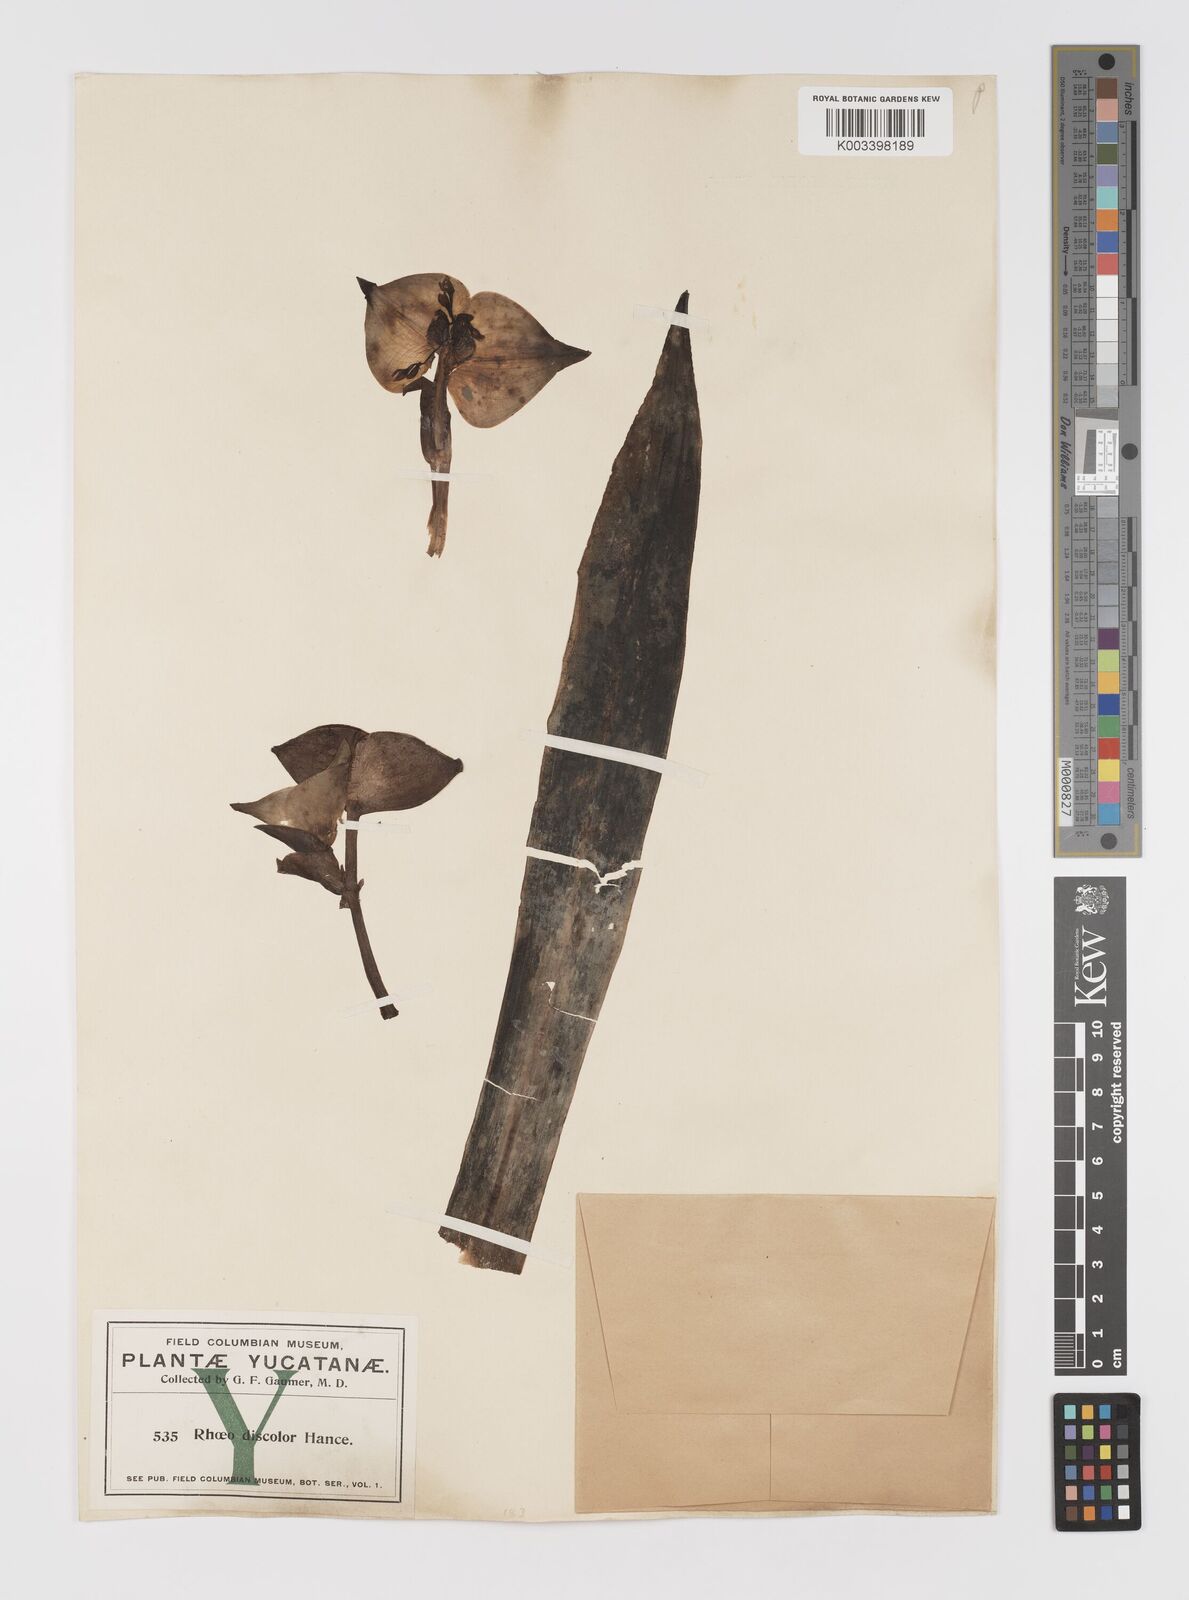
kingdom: Plantae
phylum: Tracheophyta
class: Liliopsida
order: Commelinales
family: Commelinaceae
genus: Tradescantia
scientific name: Tradescantia spathacea
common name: Boatlily
